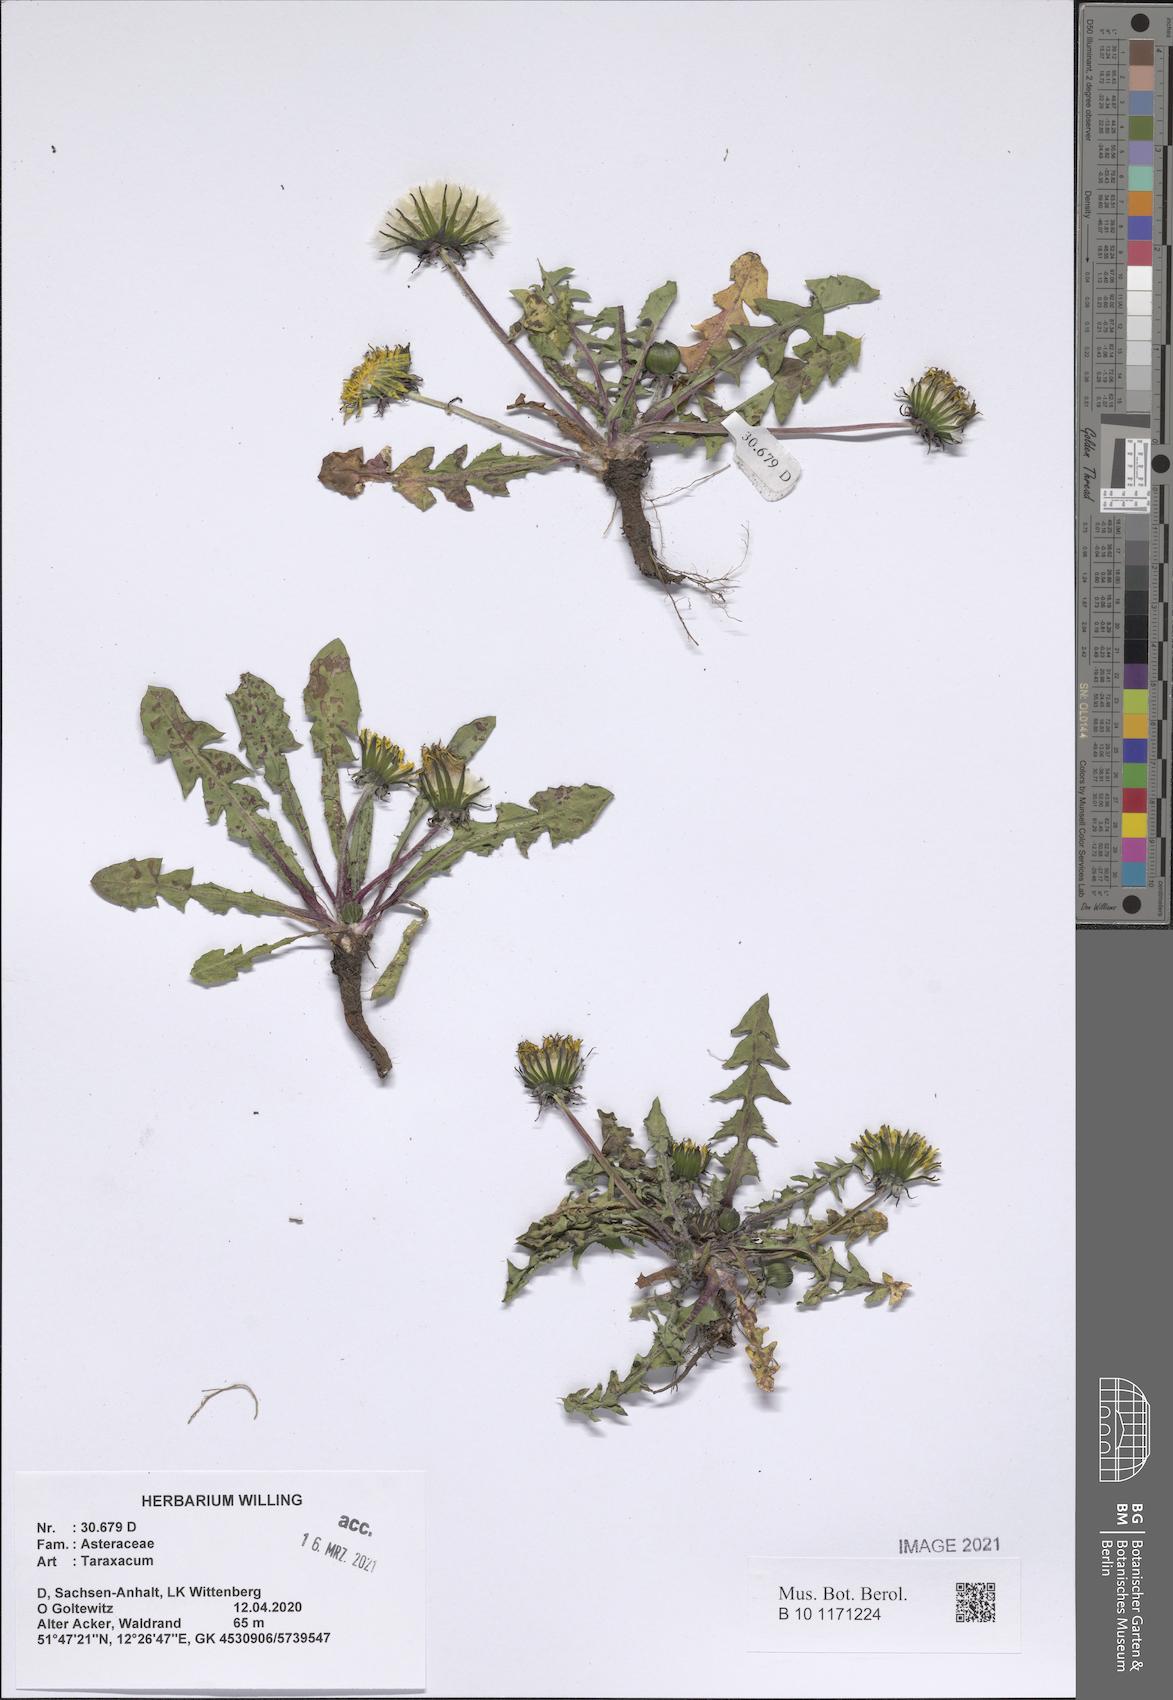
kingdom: Plantae
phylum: Tracheophyta
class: Magnoliopsida
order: Asterales
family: Asteraceae
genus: Taraxacum
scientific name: Taraxacum
